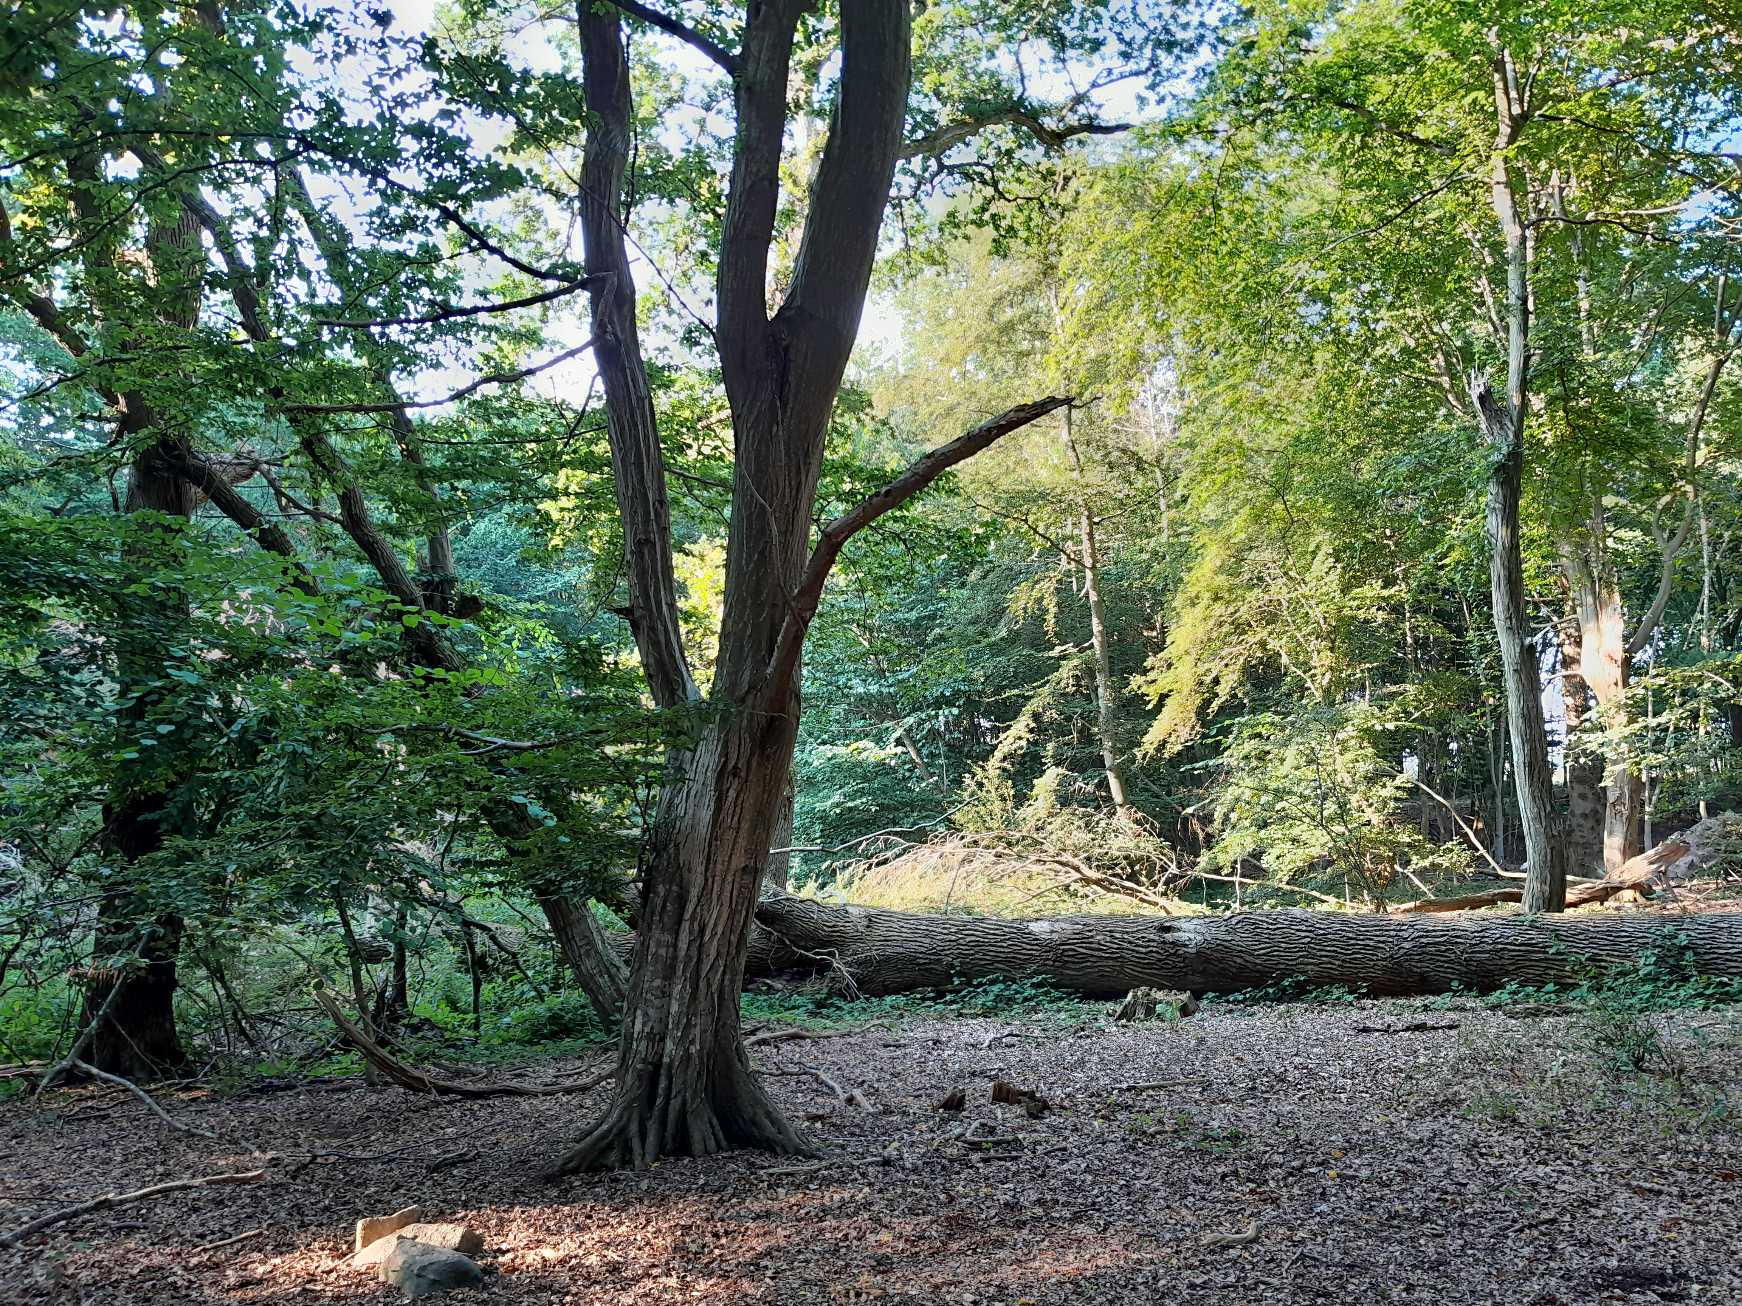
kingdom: Plantae
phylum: Tracheophyta
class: Magnoliopsida
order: Fagales
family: Betulaceae
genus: Carpinus
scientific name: Carpinus betulus
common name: Avnbøg
